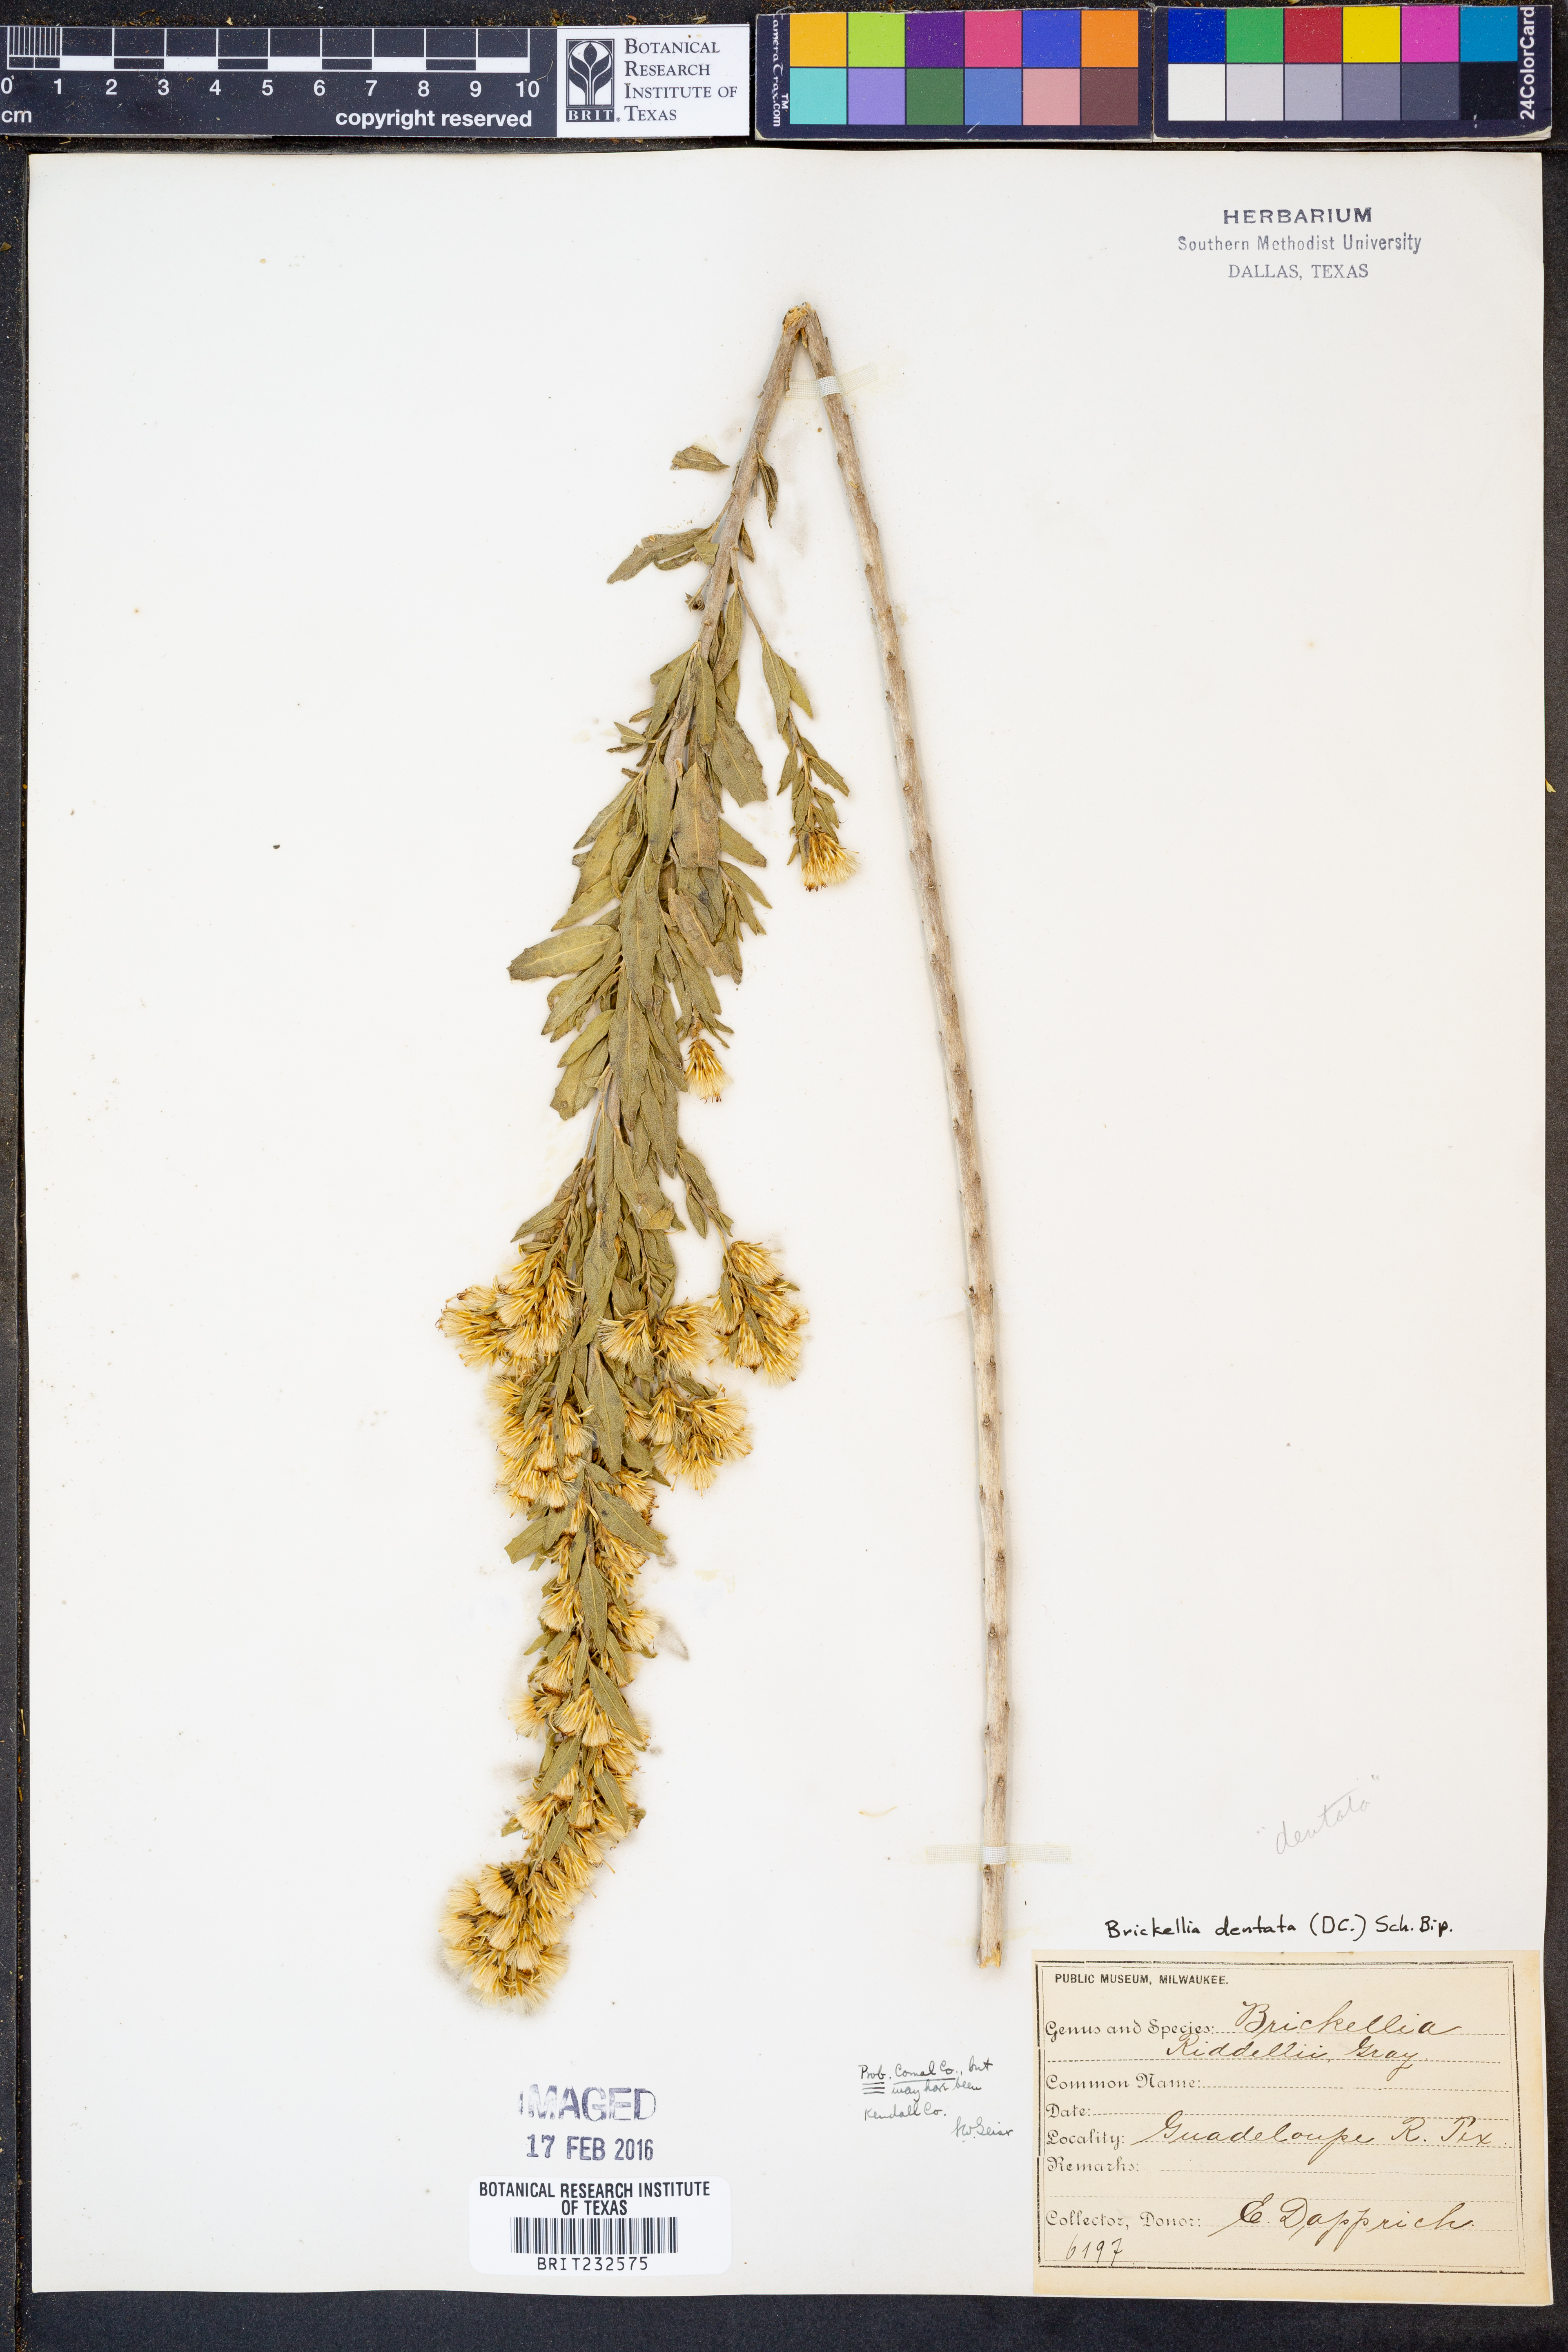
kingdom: Plantae
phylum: Tracheophyta
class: Magnoliopsida
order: Asterales
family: Asteraceae
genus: Brickellia
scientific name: Brickellia dentata
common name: Leafy brickellbush
